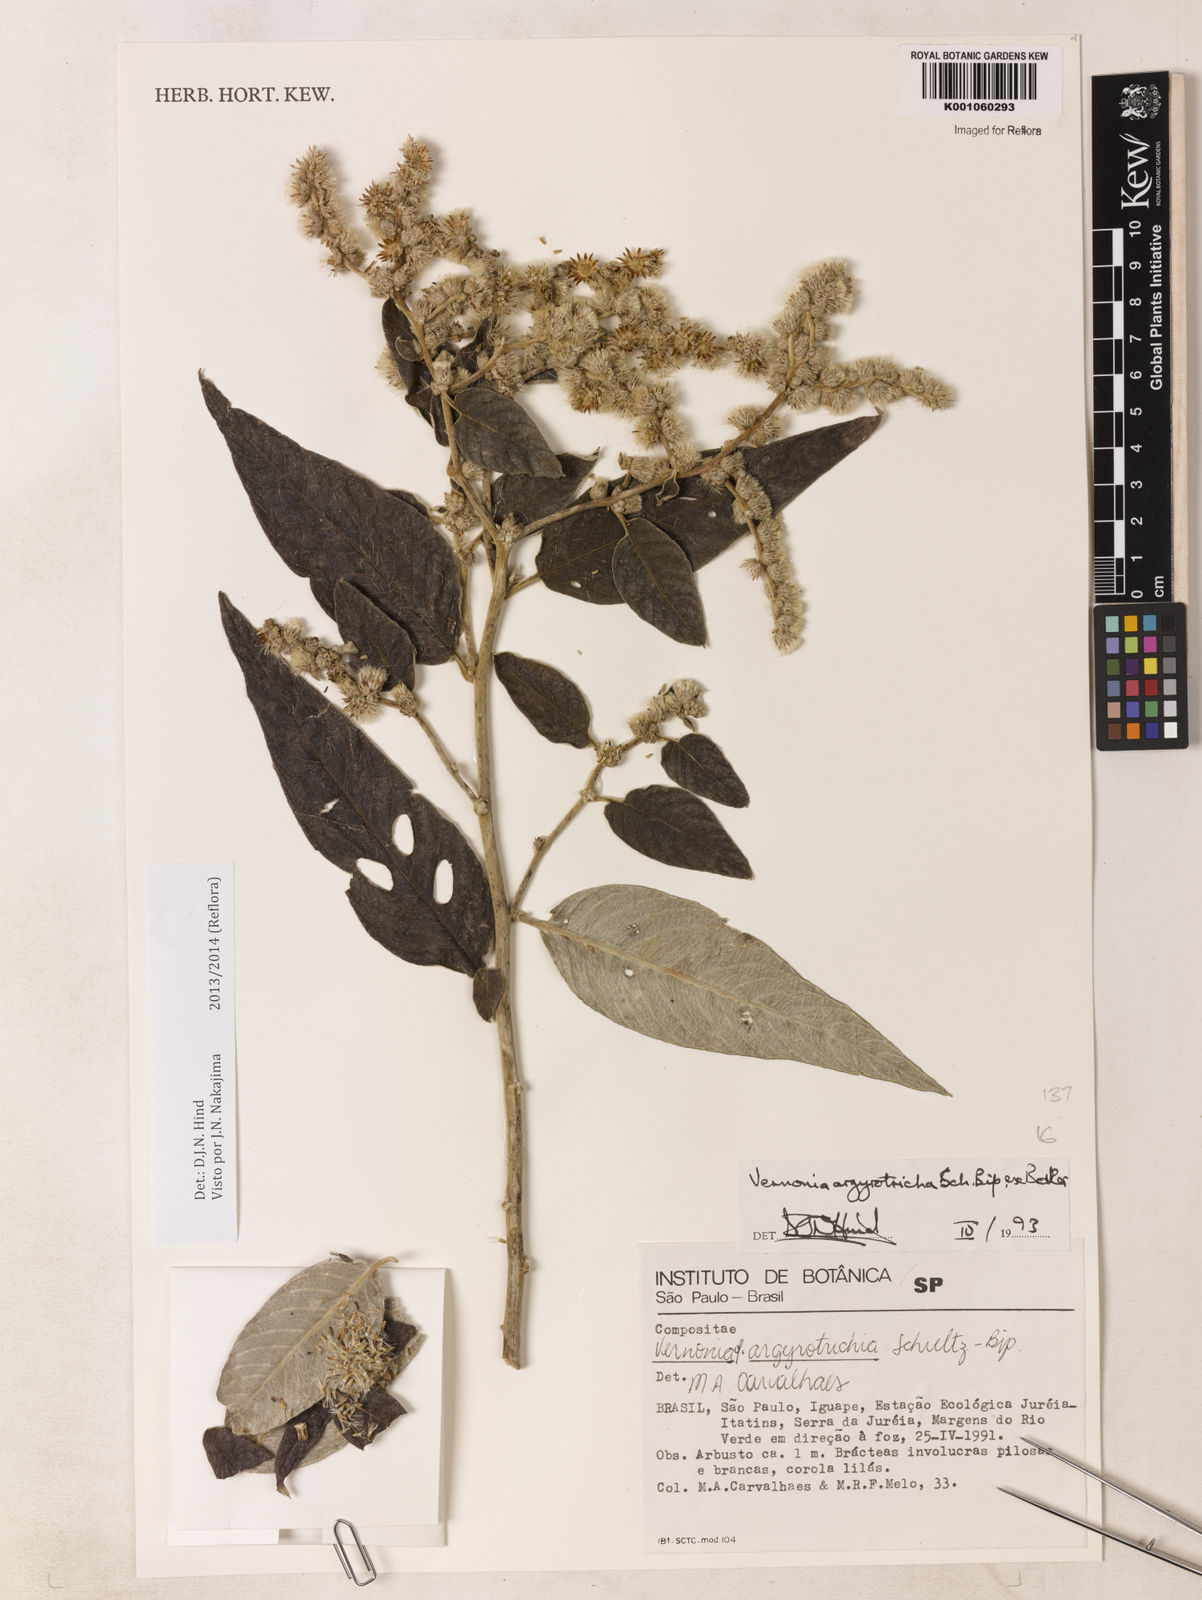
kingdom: Plantae
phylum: Tracheophyta
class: Magnoliopsida
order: Asterales
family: Asteraceae
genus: Lepidaploa
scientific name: Lepidaploa argyrotricha
